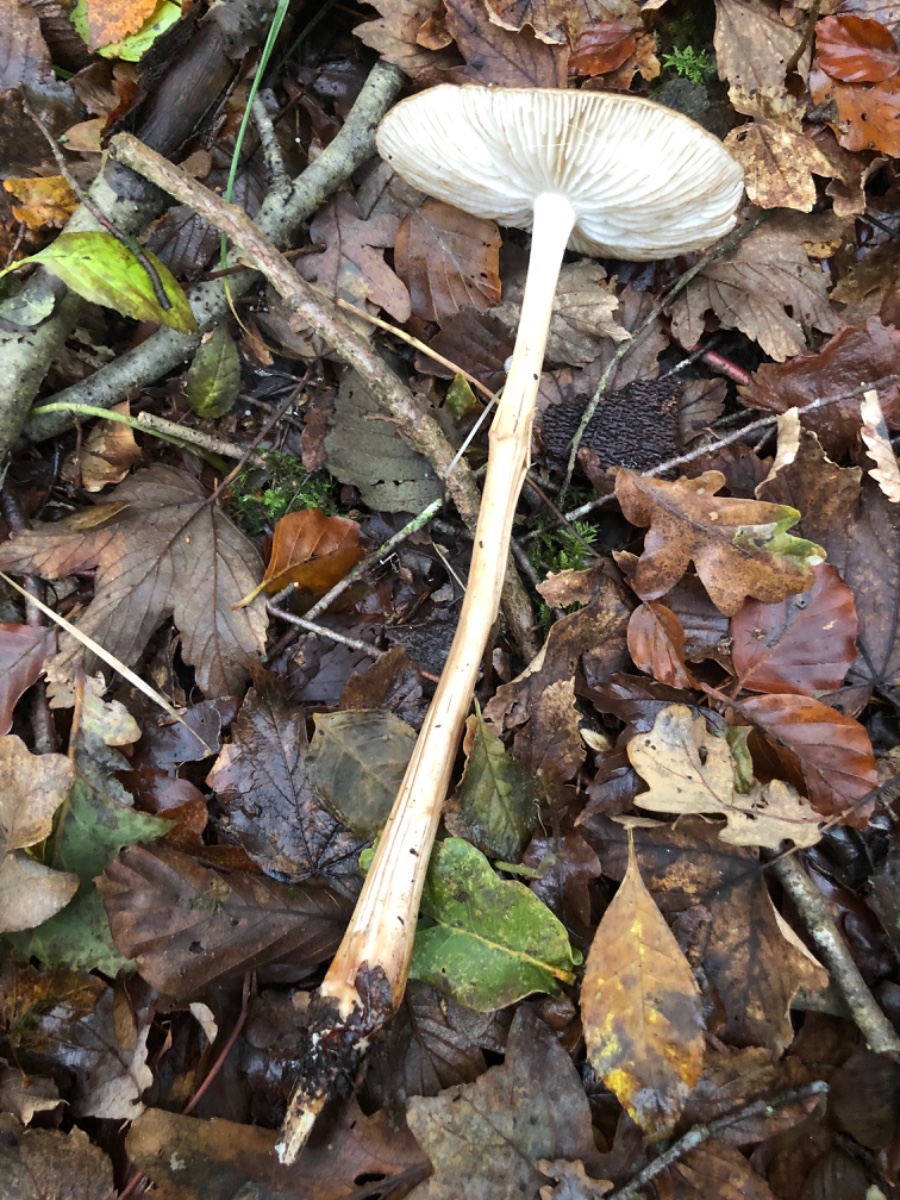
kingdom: Fungi
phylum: Basidiomycota
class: Agaricomycetes
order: Agaricales
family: Physalacriaceae
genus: Hymenopellis
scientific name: Hymenopellis radicata
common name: almindelig pælerodshat
